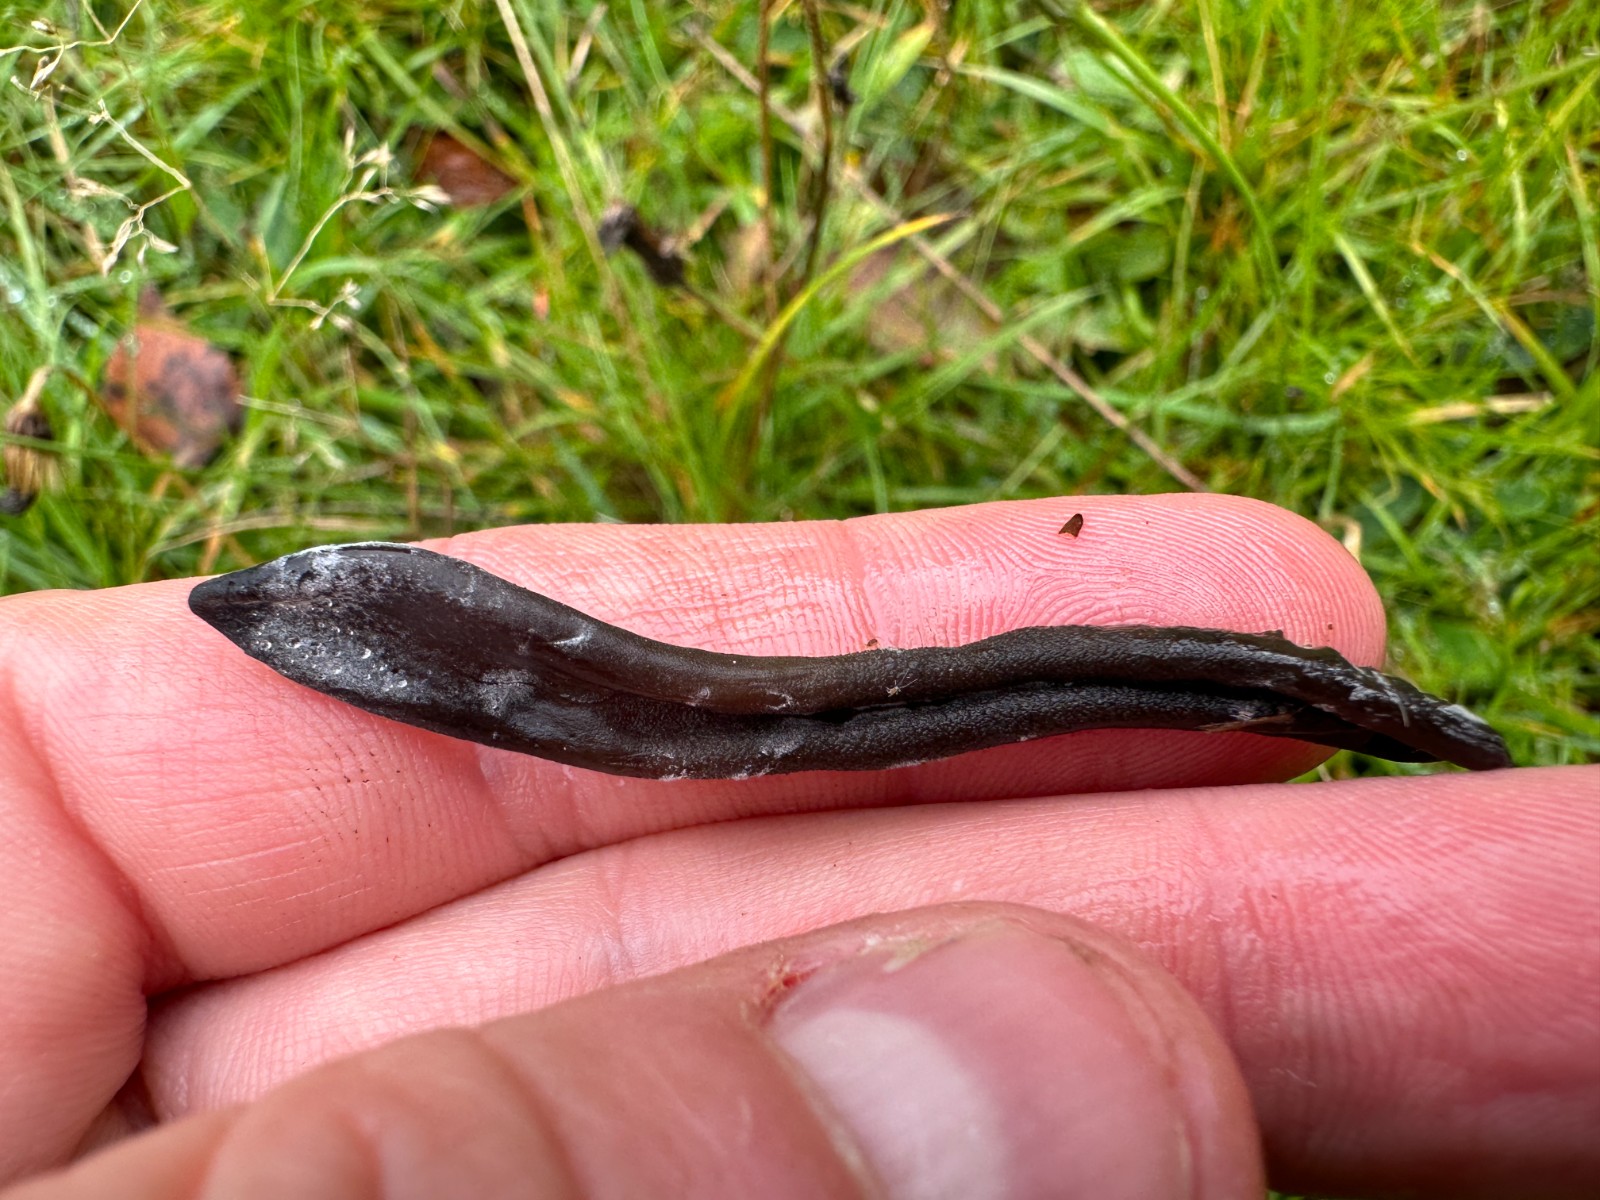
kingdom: Fungi
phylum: Ascomycota
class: Geoglossomycetes
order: Geoglossales
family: Geoglossaceae
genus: Geoglossum
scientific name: Geoglossum
